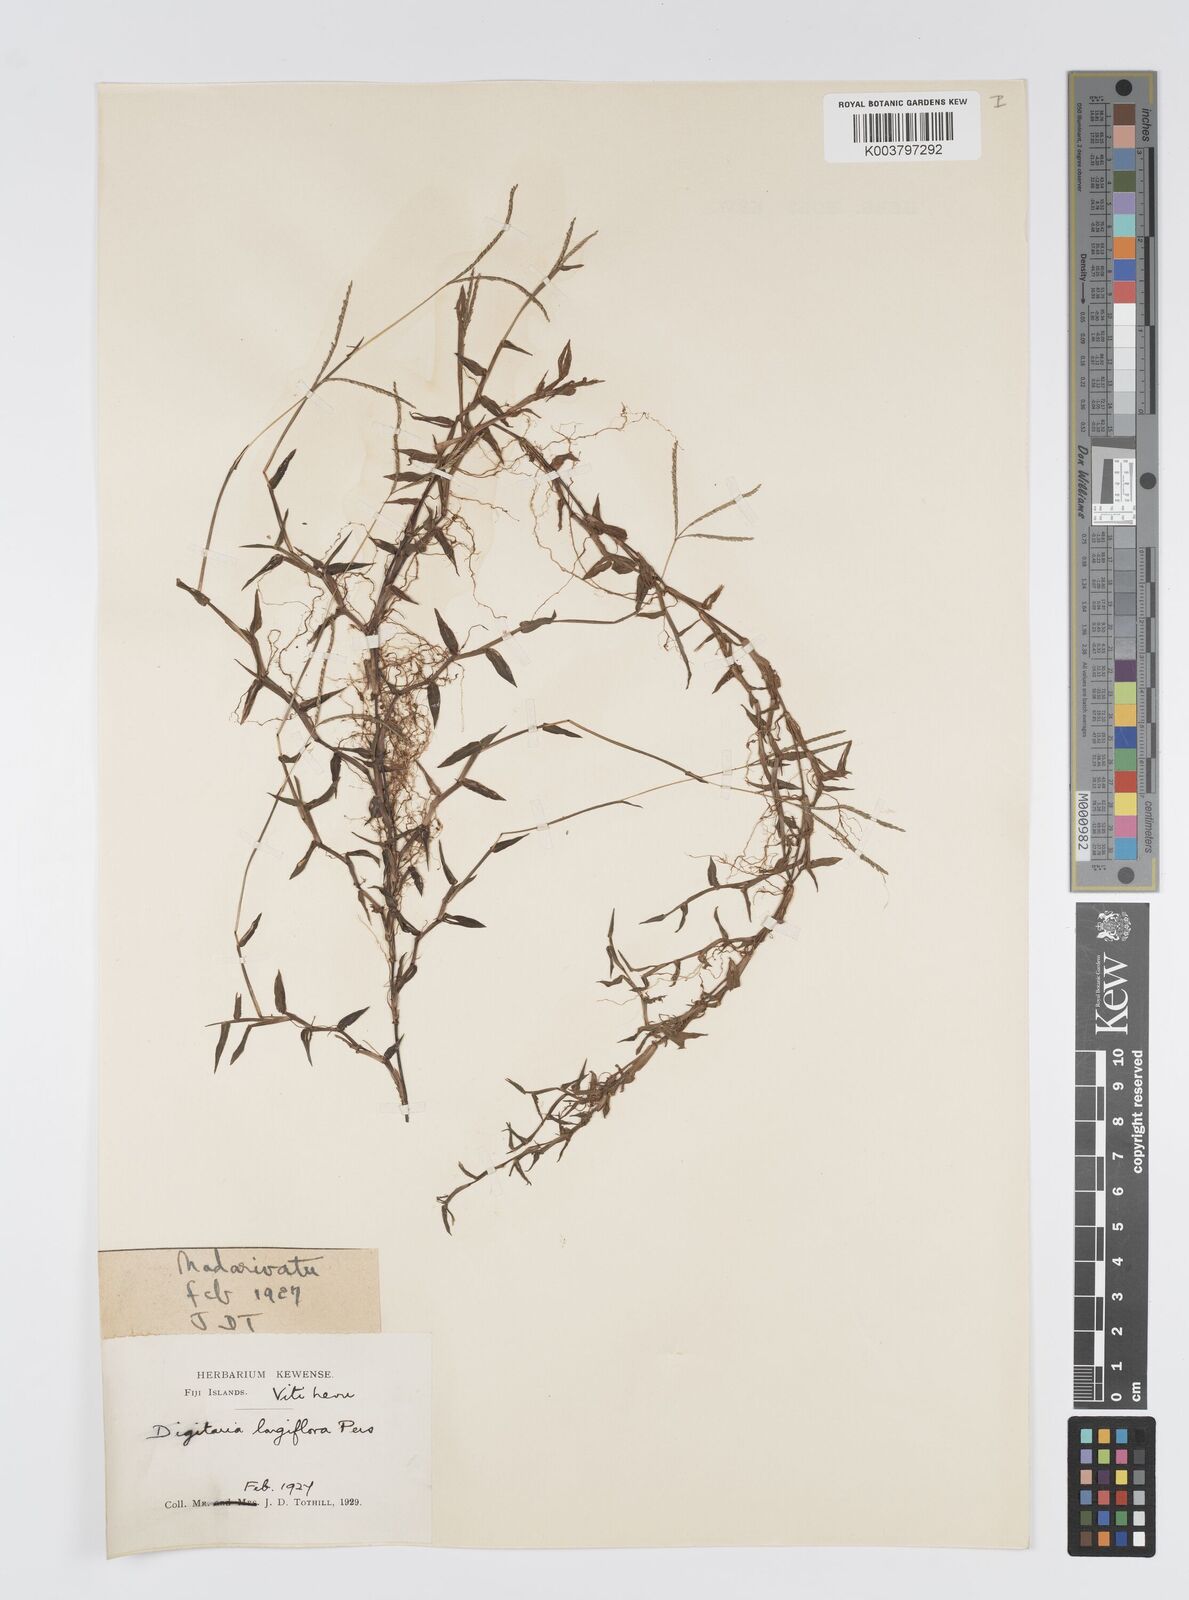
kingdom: Plantae
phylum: Tracheophyta
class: Liliopsida
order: Poales
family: Poaceae
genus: Digitaria
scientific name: Digitaria fuscescens
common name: Yellow crabgrass
